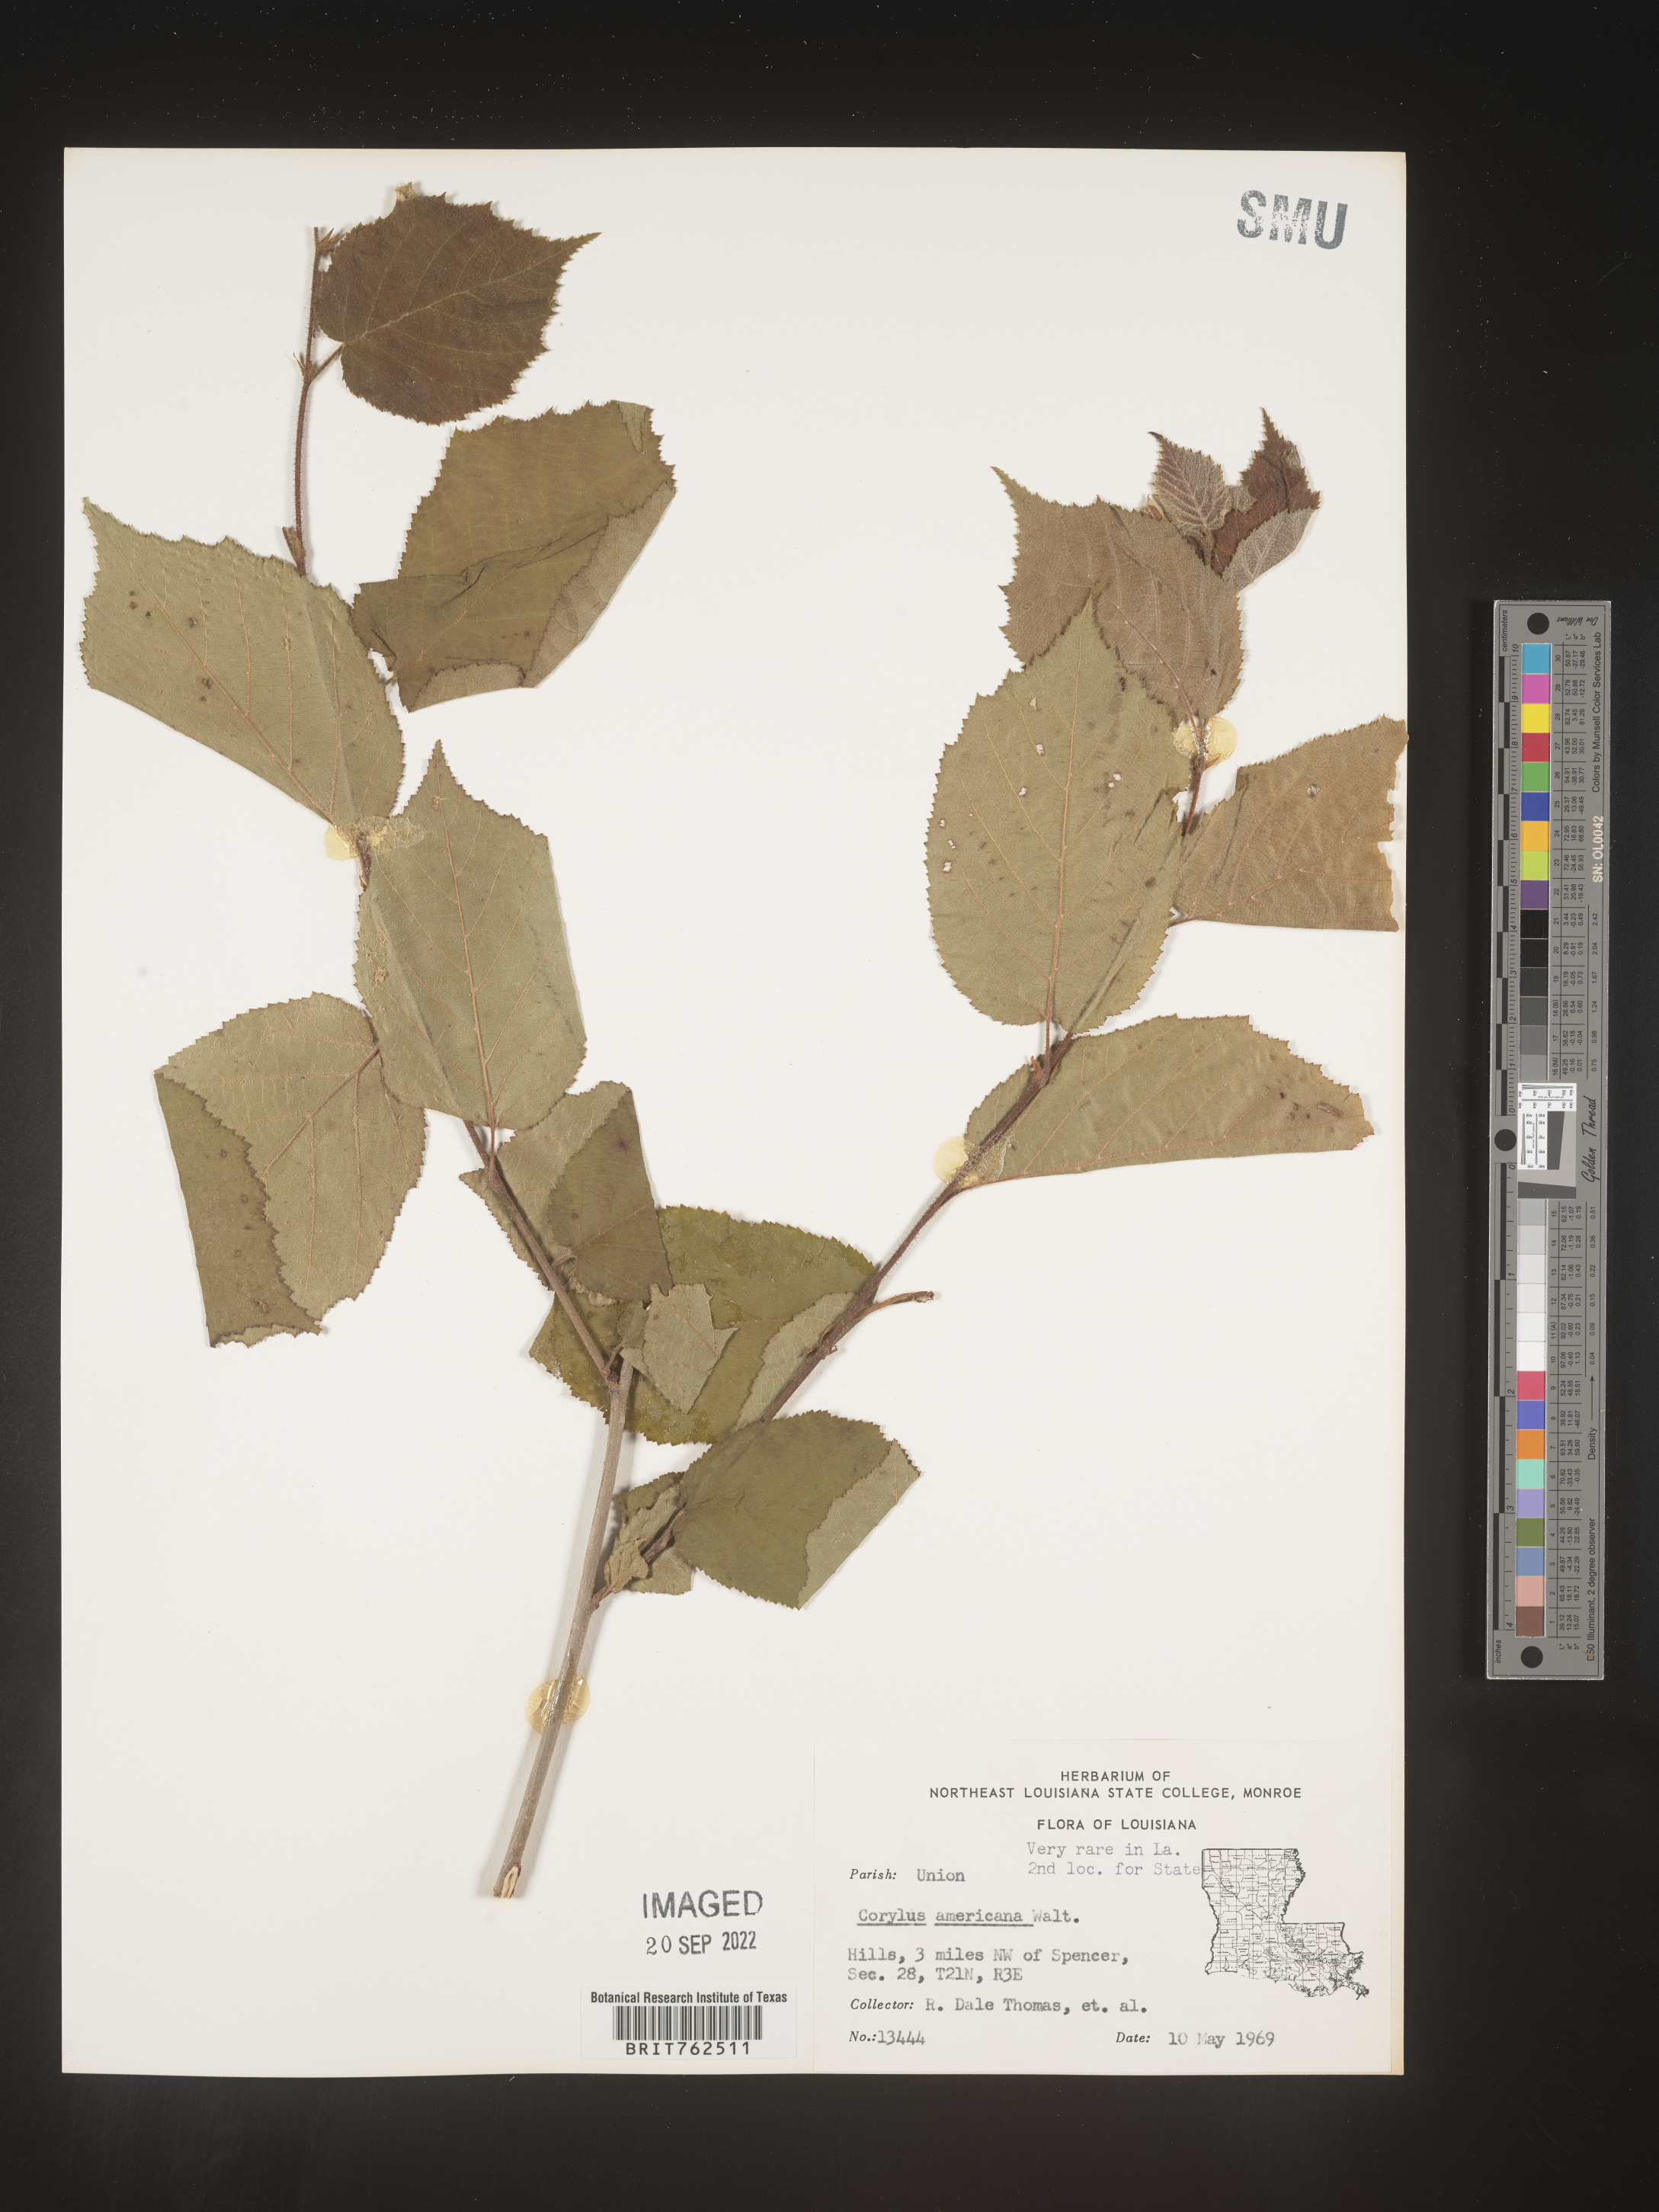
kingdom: Plantae
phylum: Tracheophyta
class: Magnoliopsida
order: Fagales
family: Betulaceae
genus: Corylus
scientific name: Corylus americana
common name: American hazel
